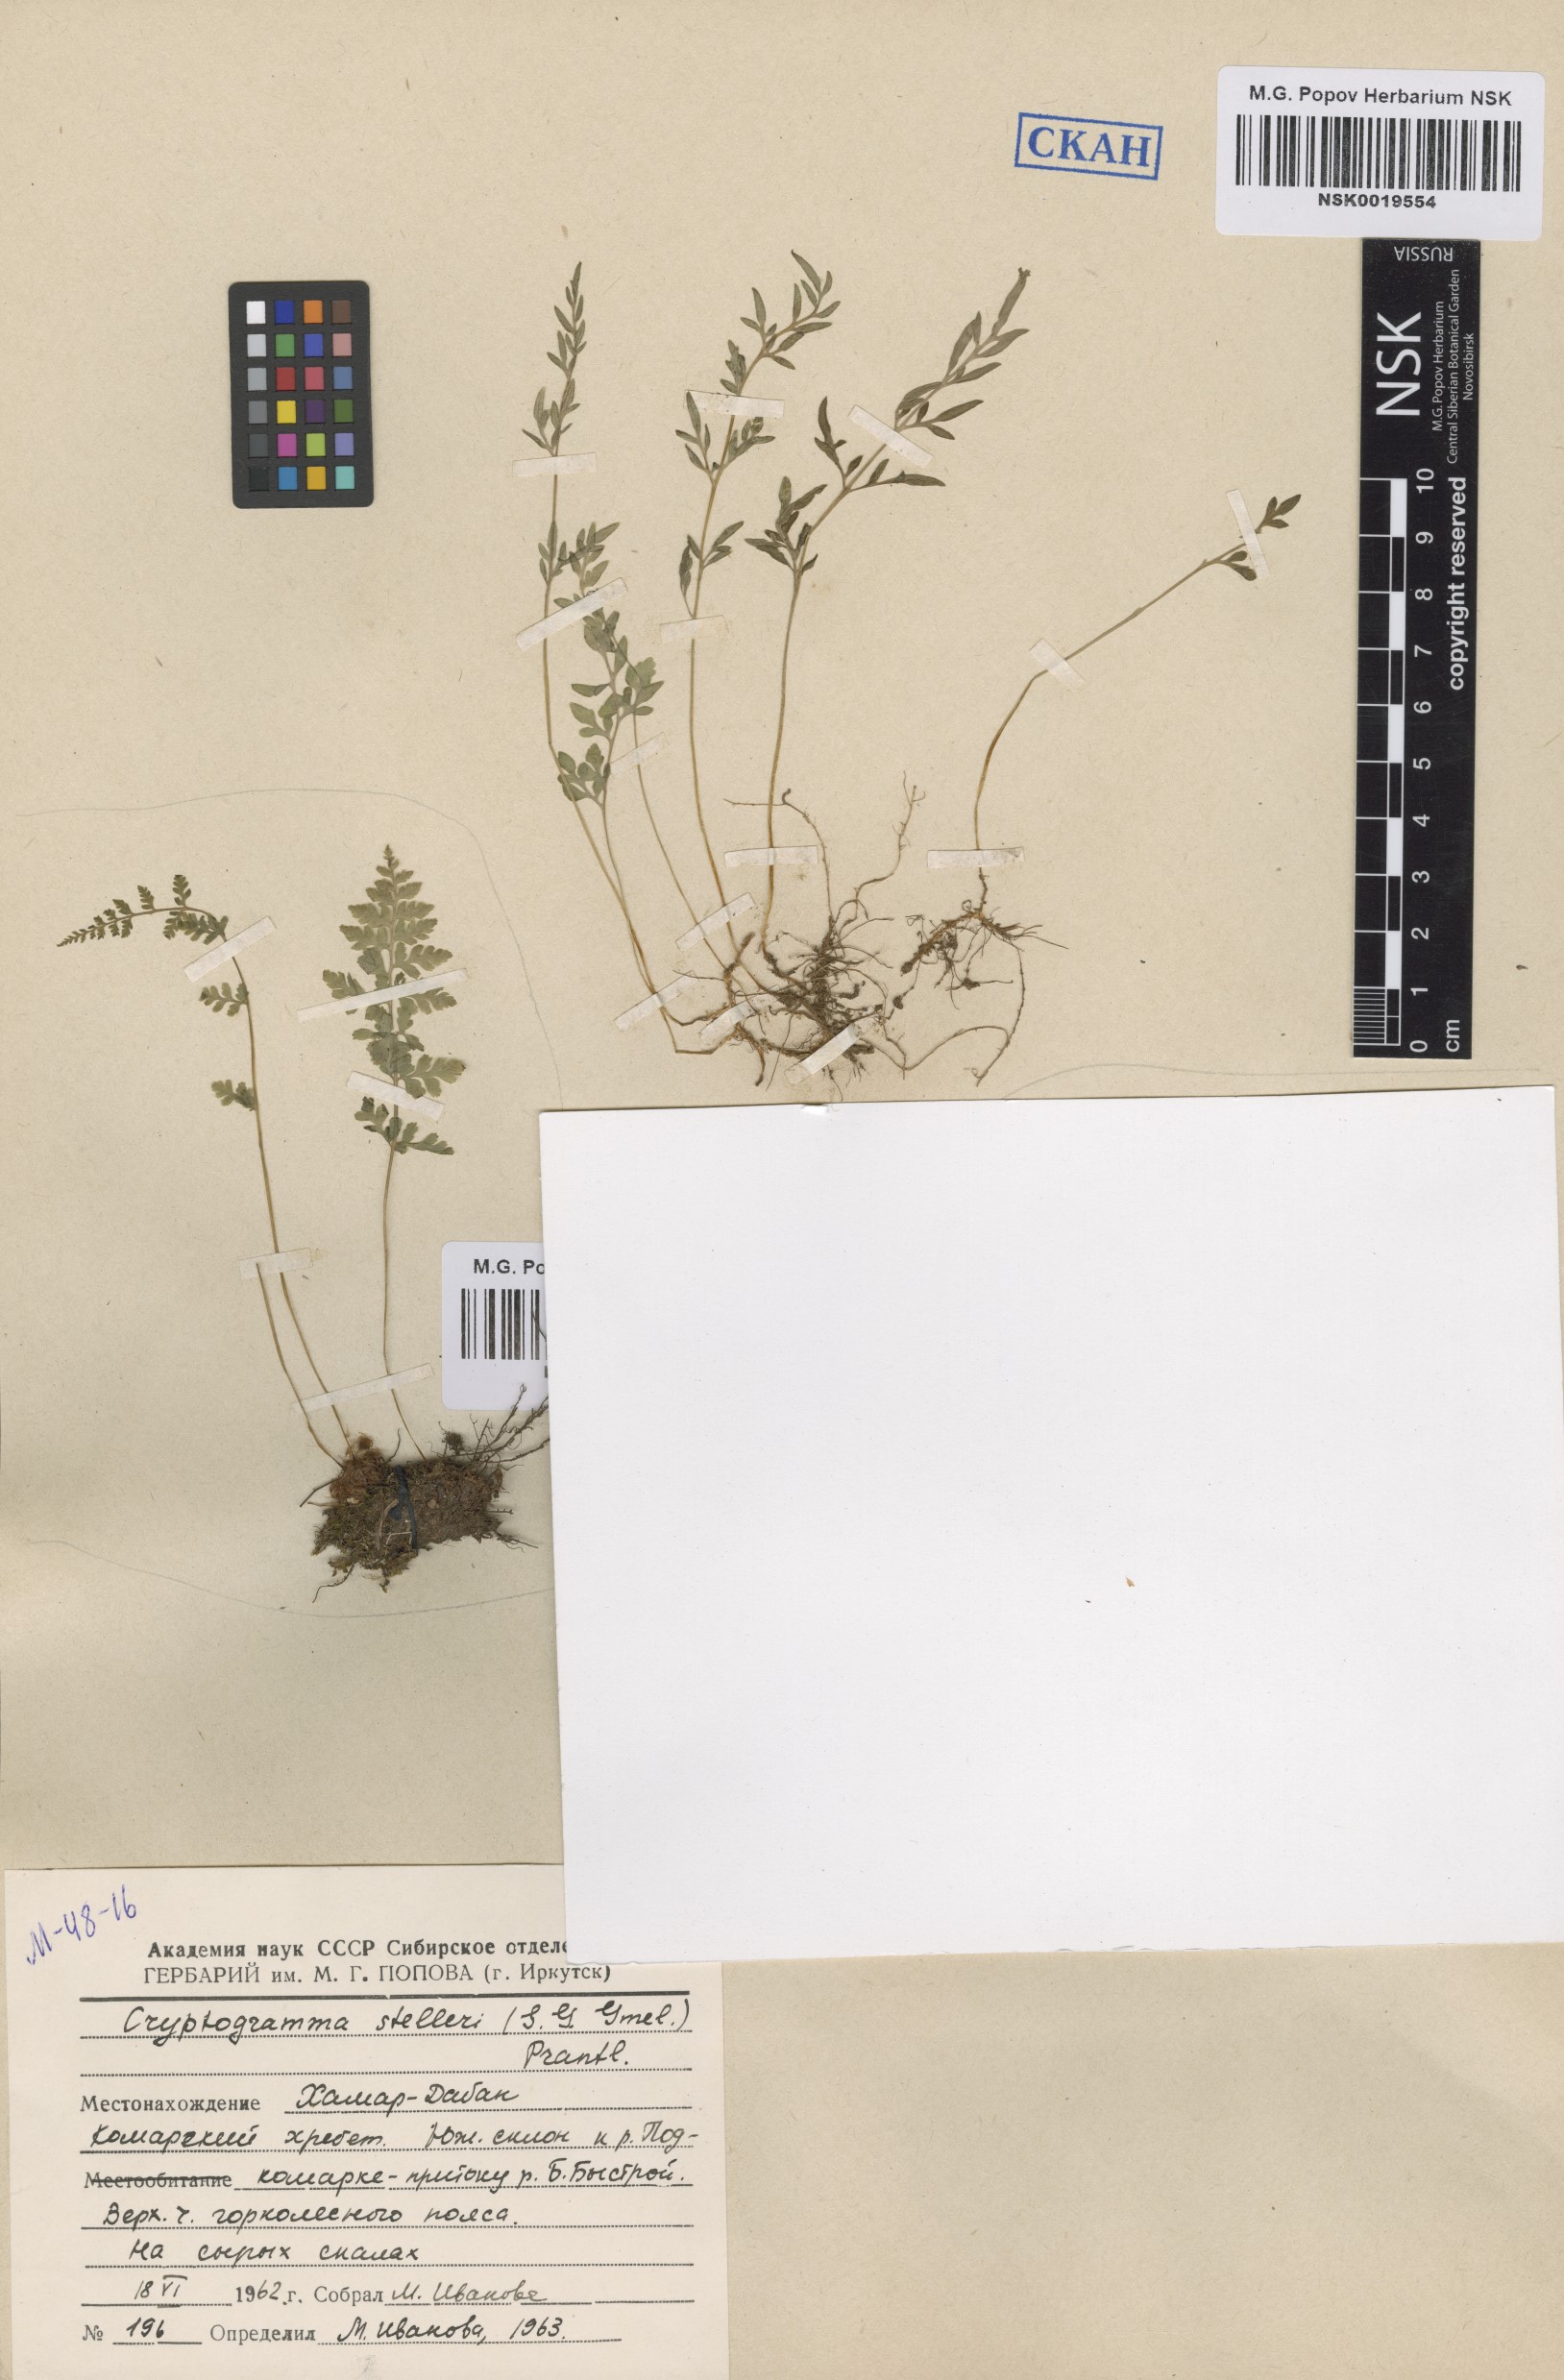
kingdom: Plantae
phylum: Tracheophyta
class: Polypodiopsida
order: Polypodiales
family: Pteridaceae
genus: Cryptogramma
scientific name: Cryptogramma stelleri
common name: Cliff-brake
